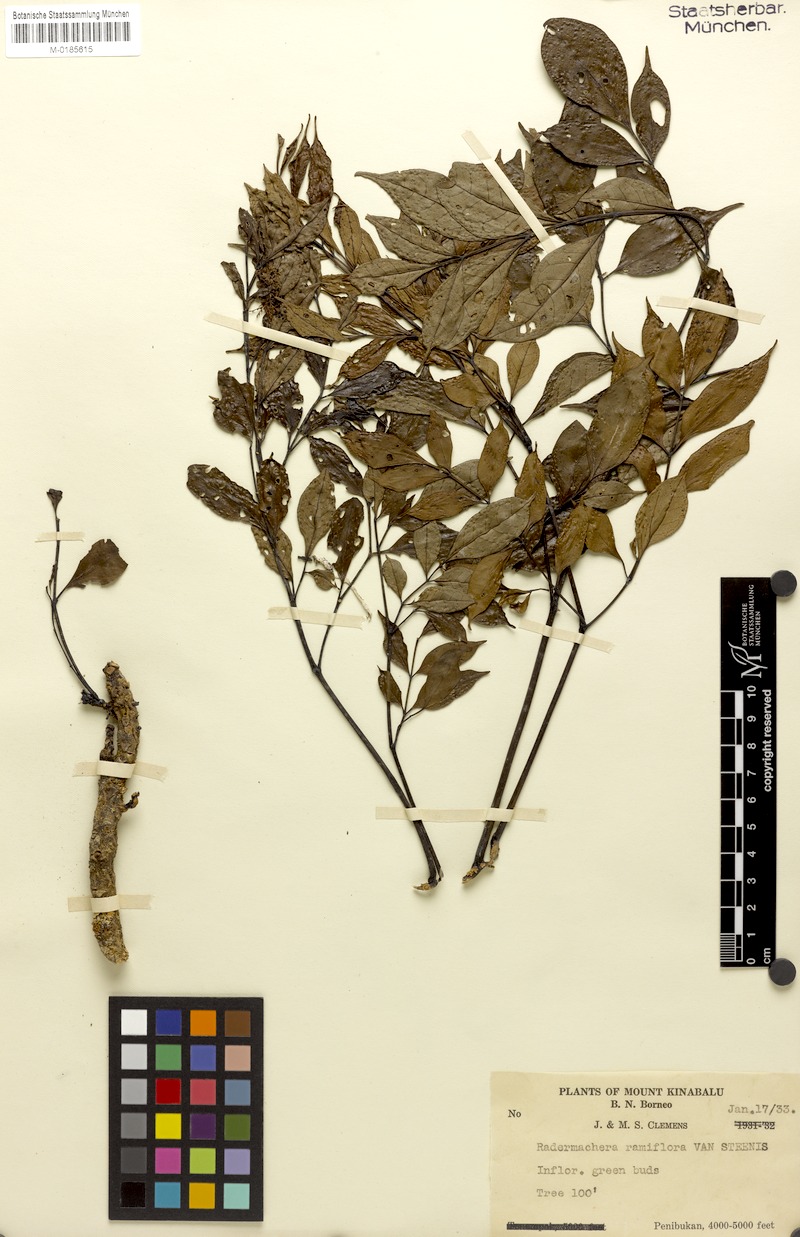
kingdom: Plantae
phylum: Tracheophyta
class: Magnoliopsida
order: Lamiales
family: Bignoniaceae
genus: Radermachera
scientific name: Radermachera ramiflora
